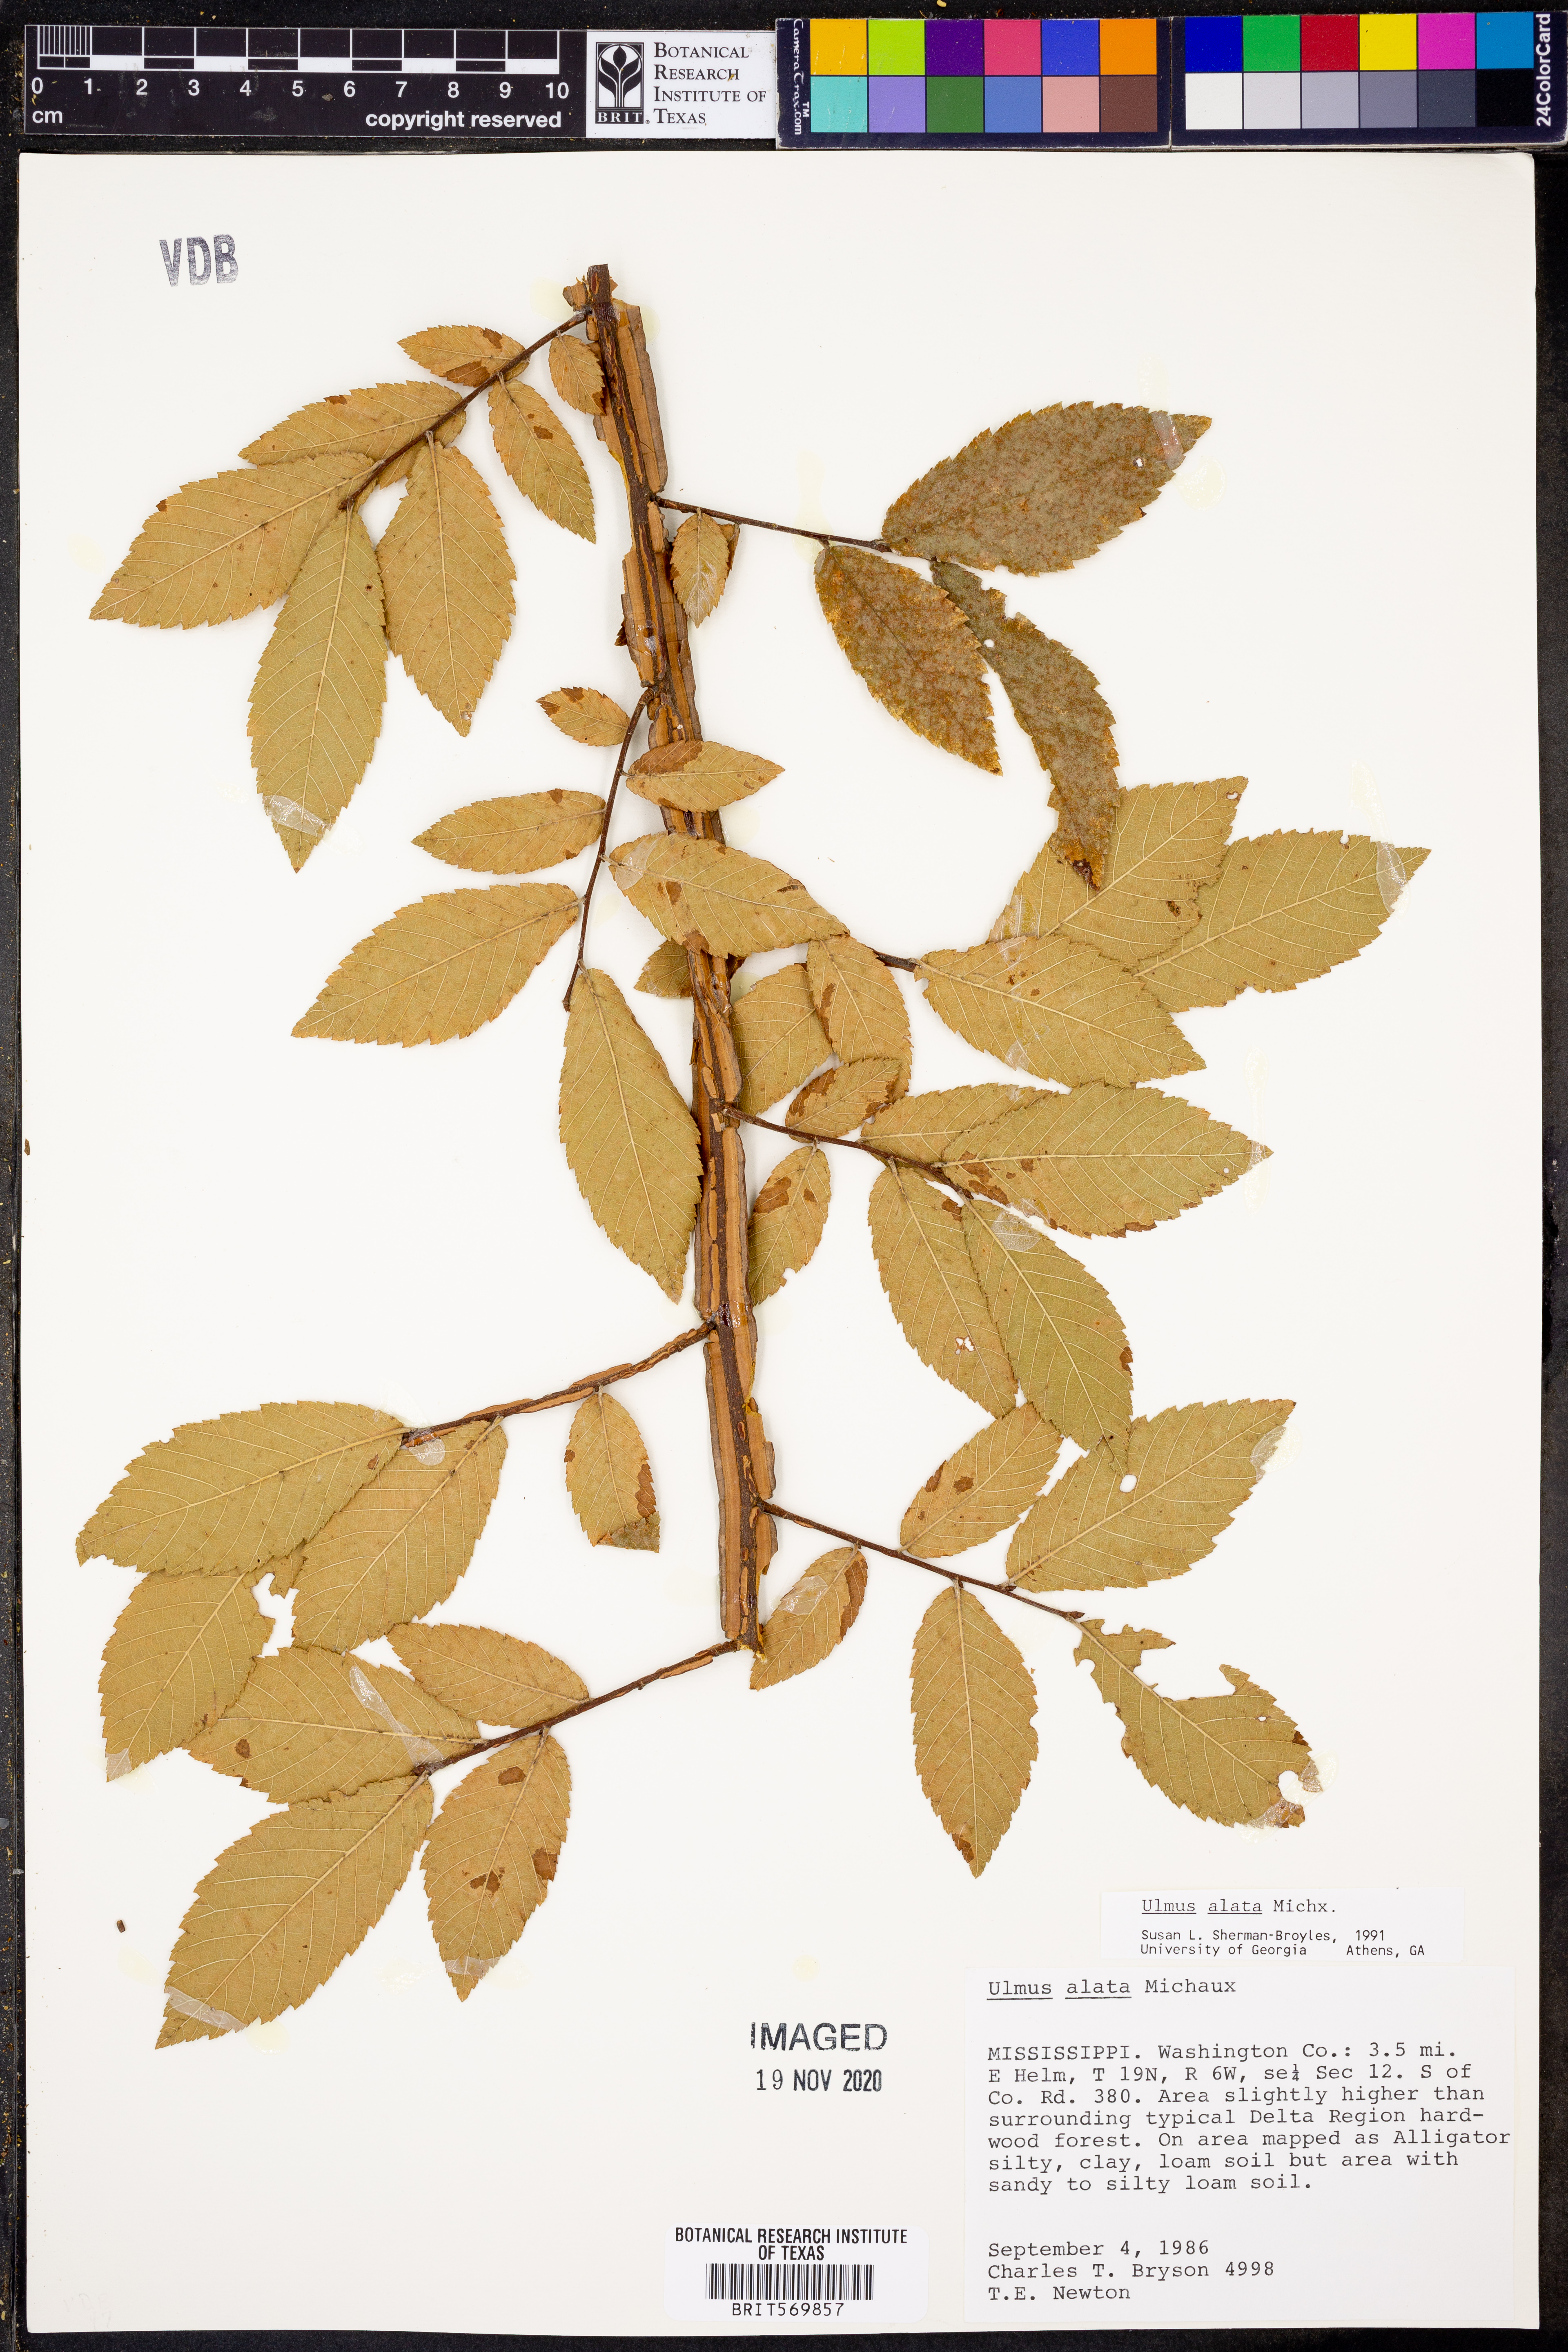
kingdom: Plantae
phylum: Tracheophyta
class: Magnoliopsida
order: Rosales
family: Ulmaceae
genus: Ulmus
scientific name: Ulmus alata
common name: Winged elm
